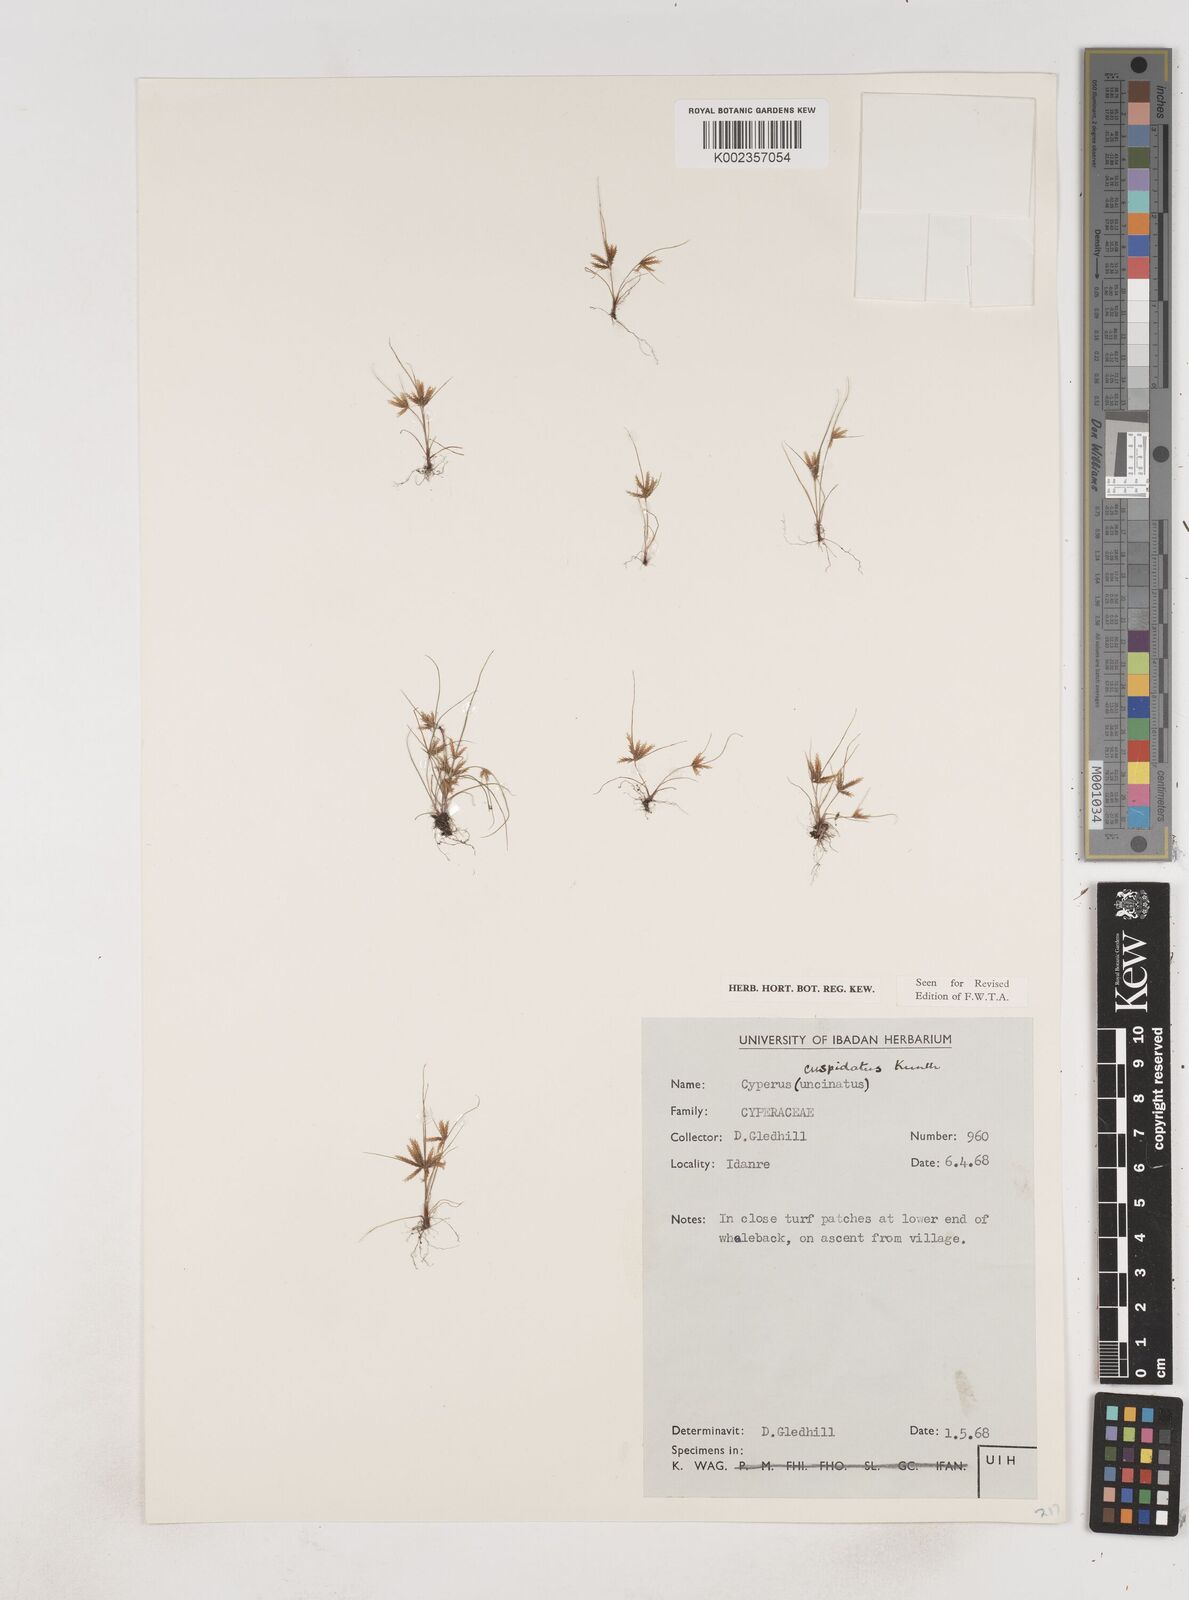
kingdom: Plantae
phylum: Tracheophyta
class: Liliopsida
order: Poales
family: Cyperaceae
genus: Cyperus
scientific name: Cyperus
